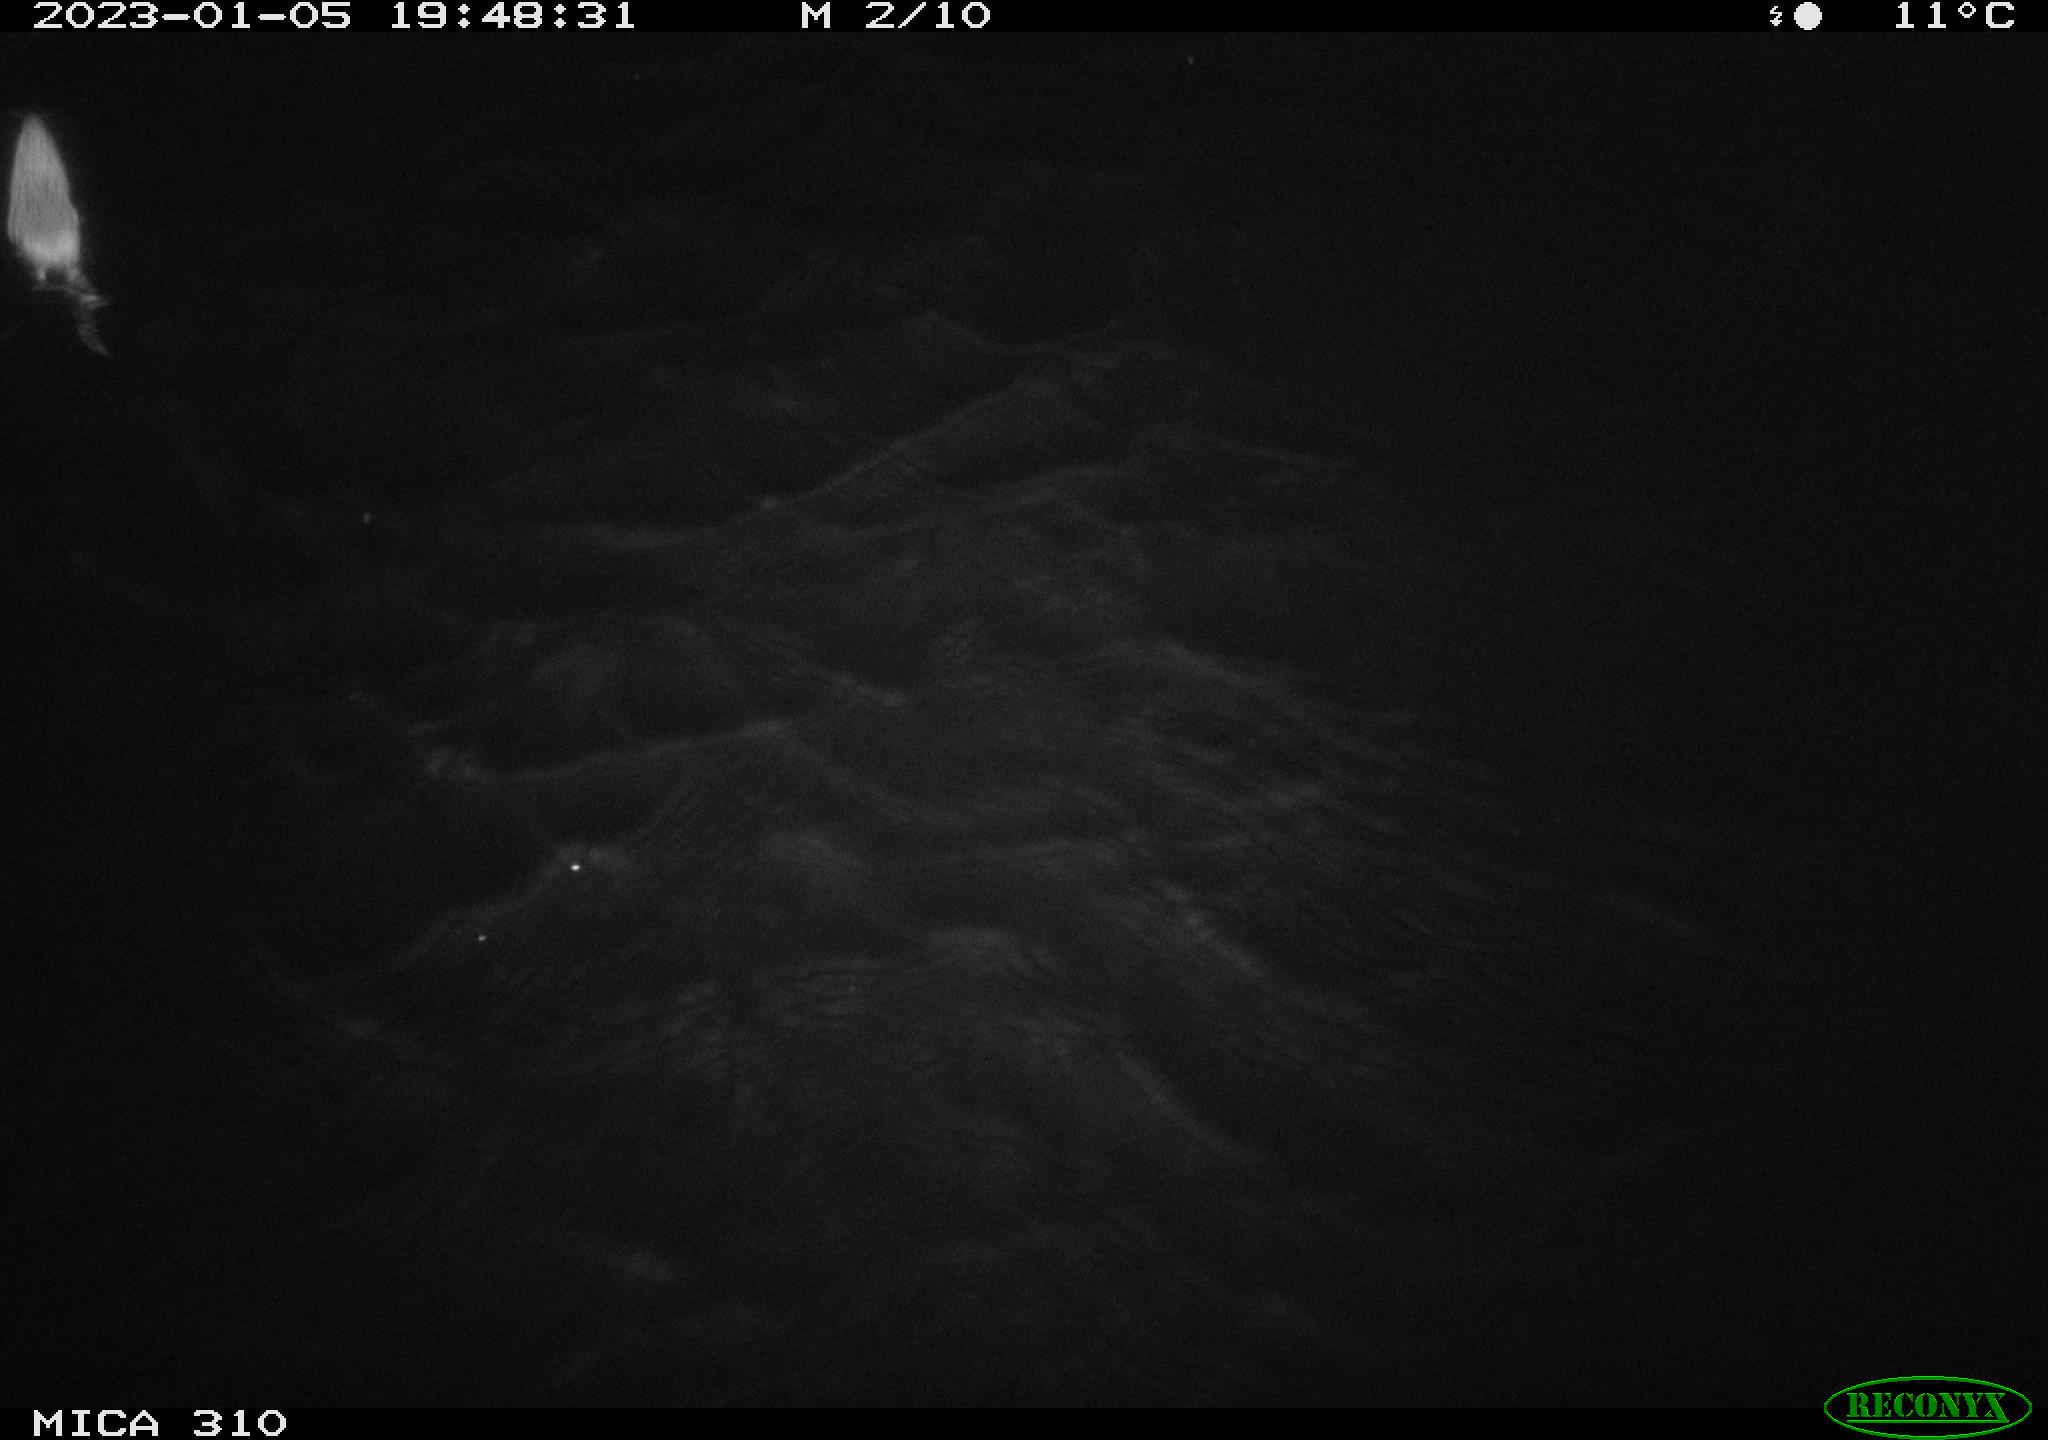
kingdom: Animalia
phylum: Chordata
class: Mammalia
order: Rodentia
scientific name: Rodentia
